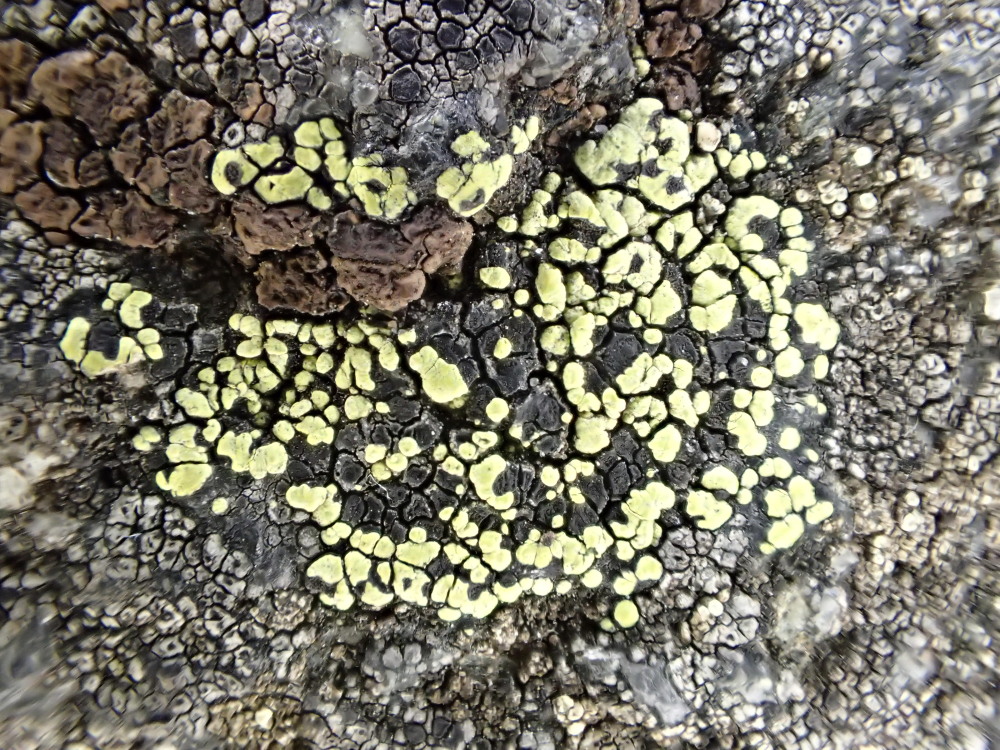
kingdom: Fungi
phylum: Ascomycota
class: Lecanoromycetes
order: Rhizocarpales
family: Rhizocarpaceae
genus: Rhizocarpon
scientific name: Rhizocarpon lecanorinum
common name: krave-landkortlav
